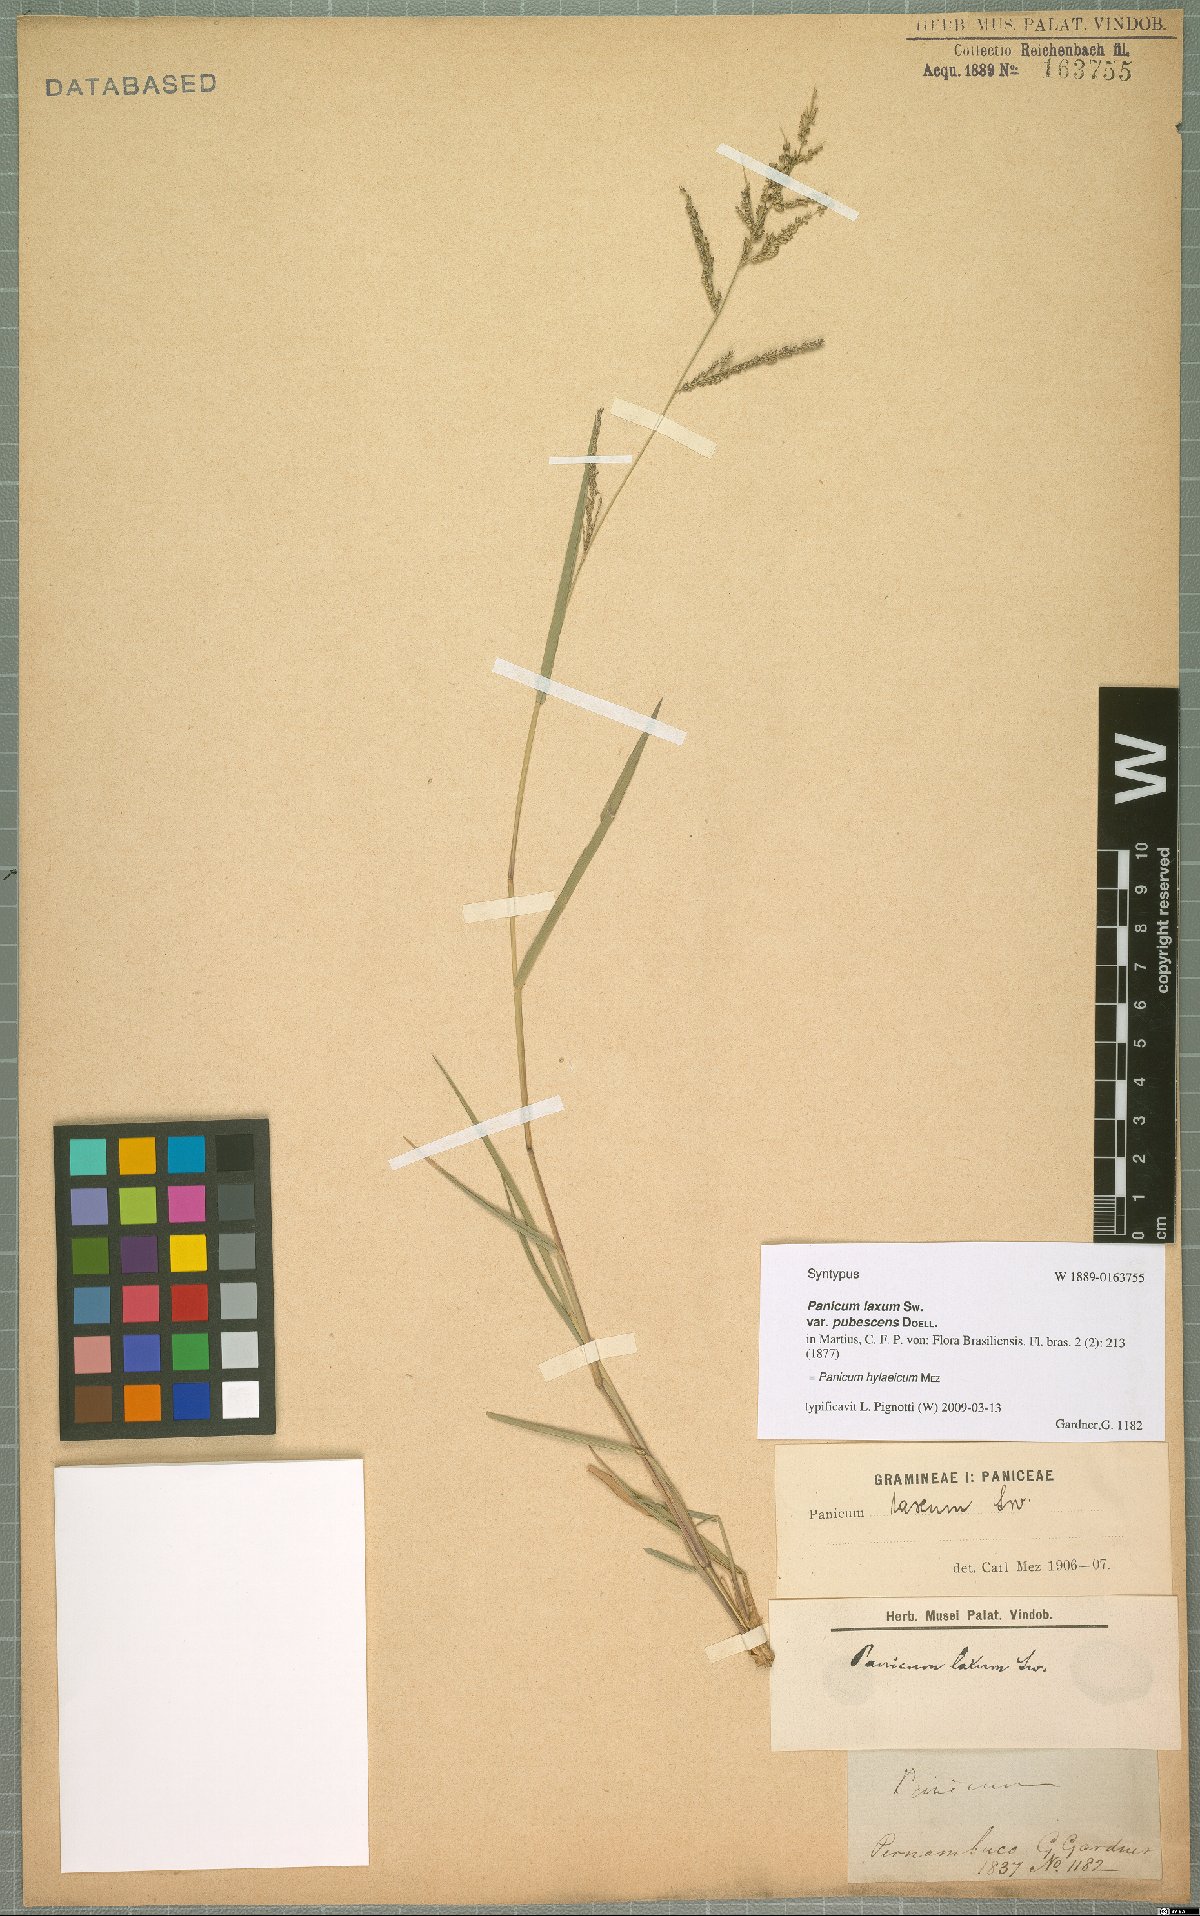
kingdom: Plantae
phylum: Tracheophyta
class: Liliopsida
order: Poales
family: Poaceae
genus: Rugoloa
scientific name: Rugoloa hylaeica
